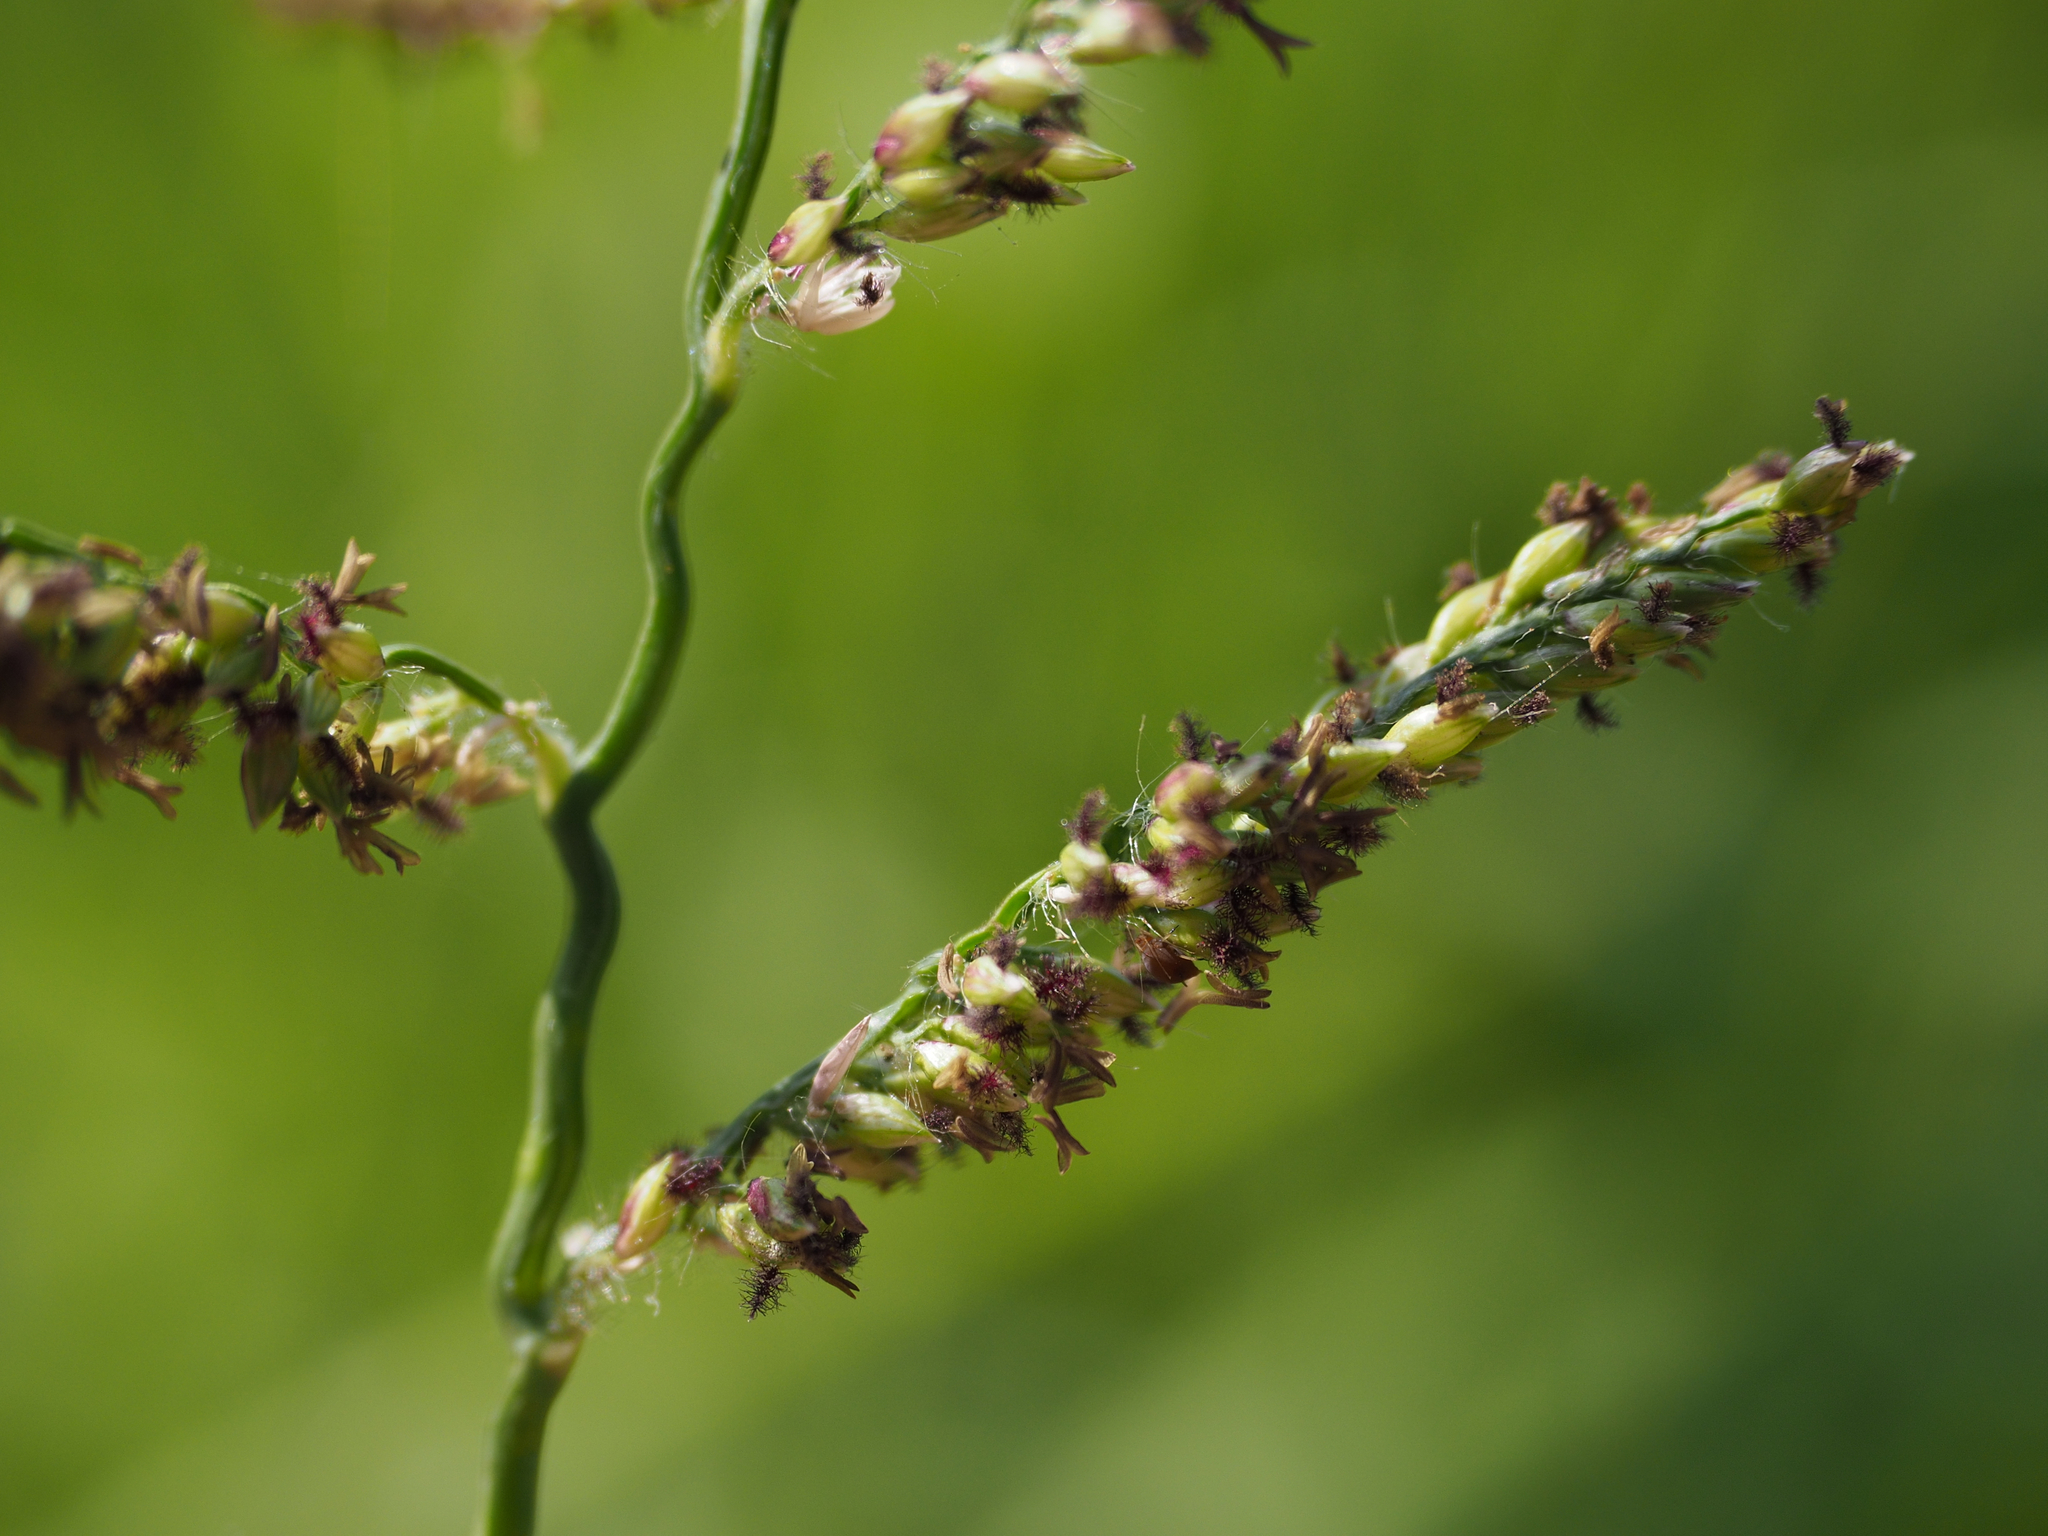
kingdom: Plantae
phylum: Tracheophyta
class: Liliopsida
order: Poales
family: Poaceae
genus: Urochloa
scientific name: Urochloa mutica
